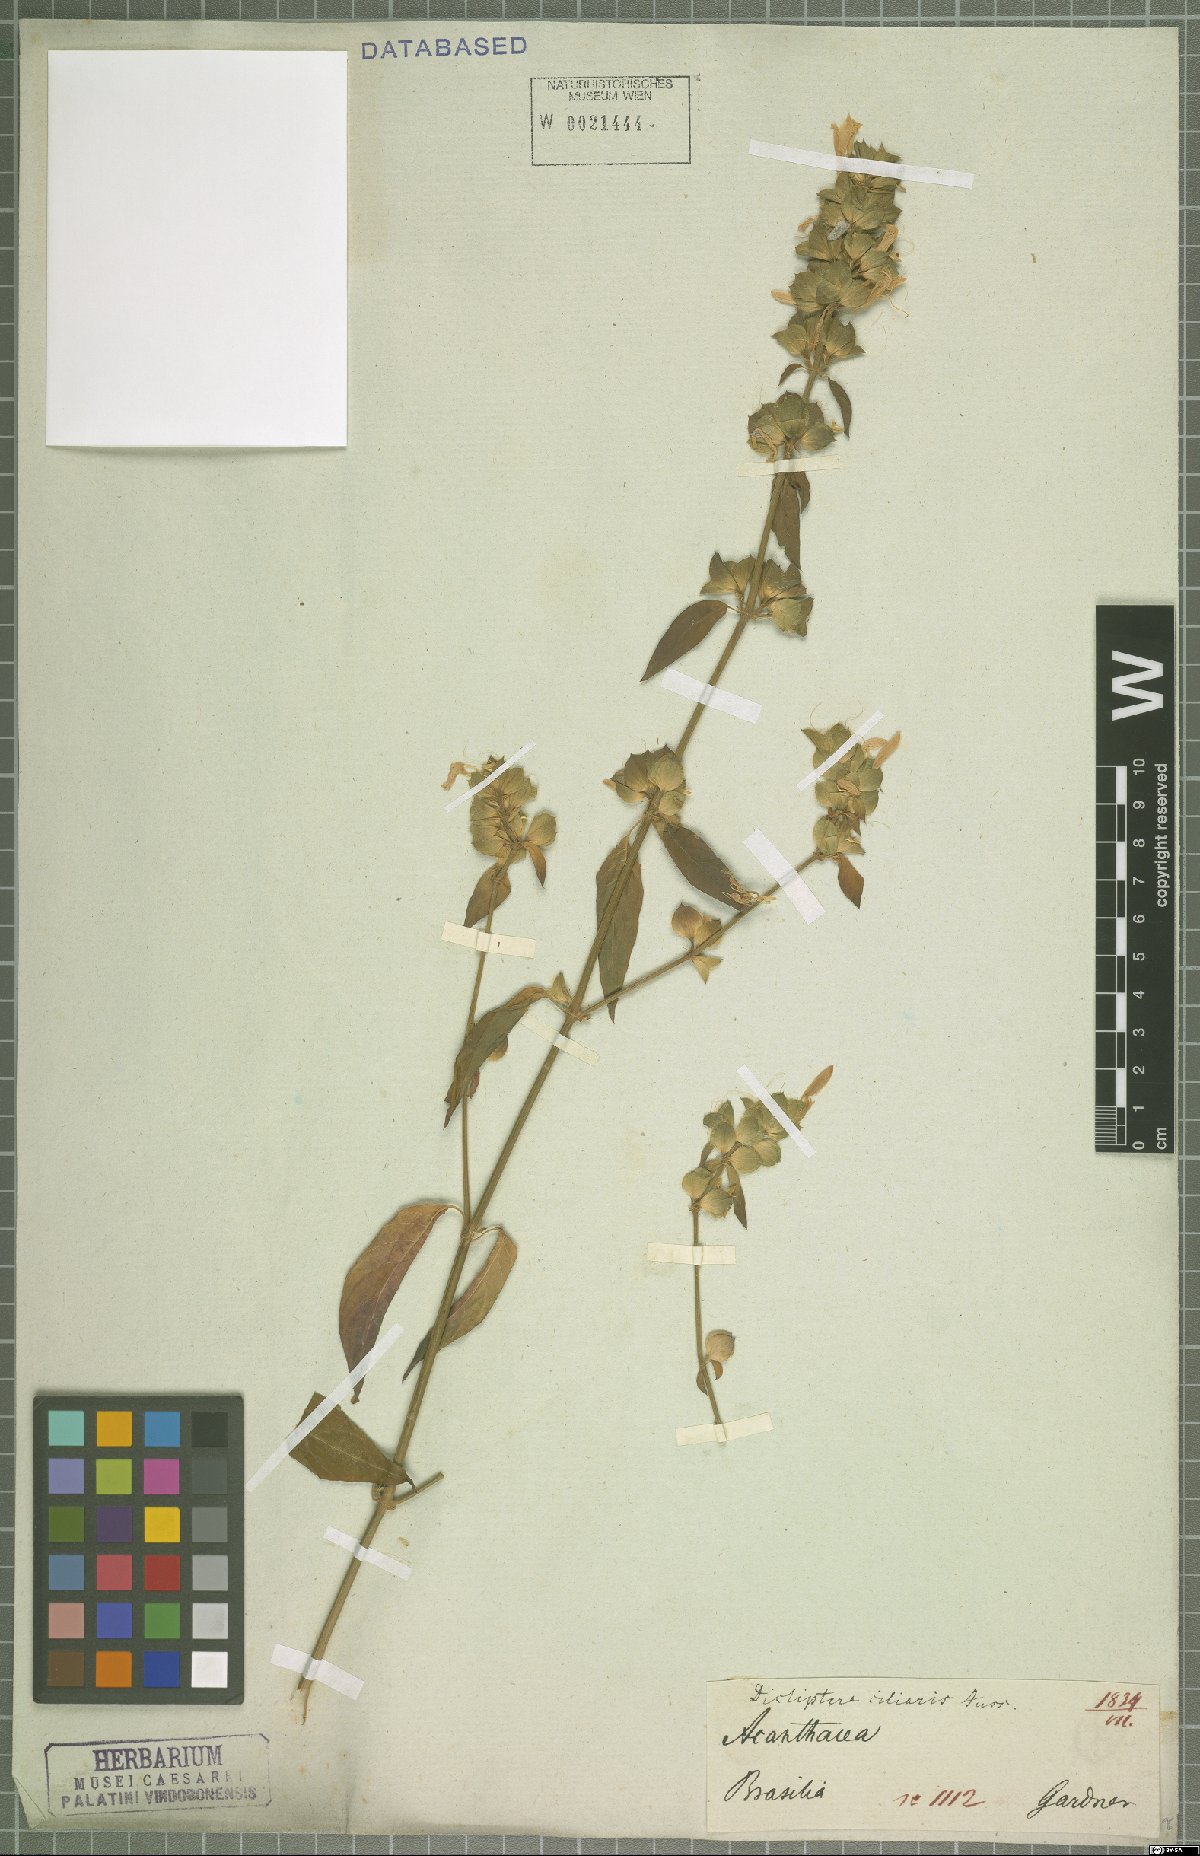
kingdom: Plantae
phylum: Tracheophyta
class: Magnoliopsida
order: Lamiales
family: Acanthaceae
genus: Dicliptera
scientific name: Dicliptera ciliaris
